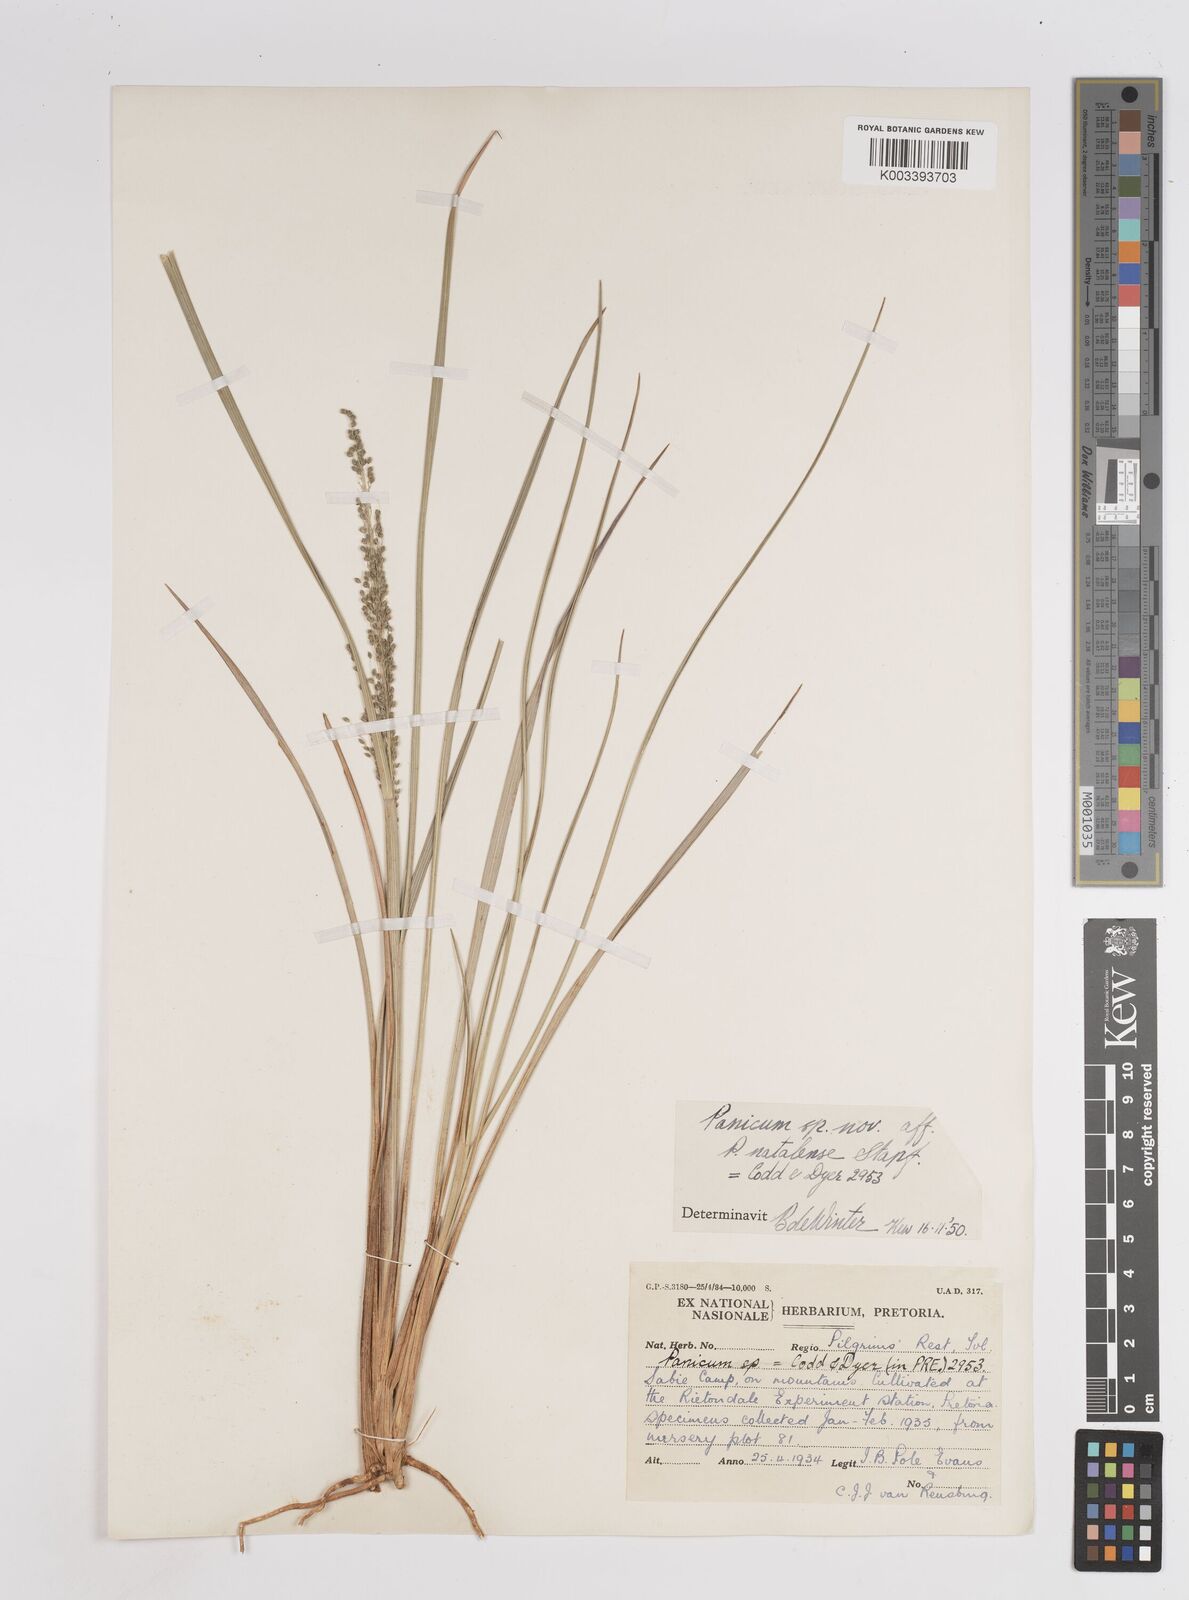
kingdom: Plantae
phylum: Tracheophyta
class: Liliopsida
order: Poales
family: Poaceae
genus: Trichanthecium
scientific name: Trichanthecium natalense
